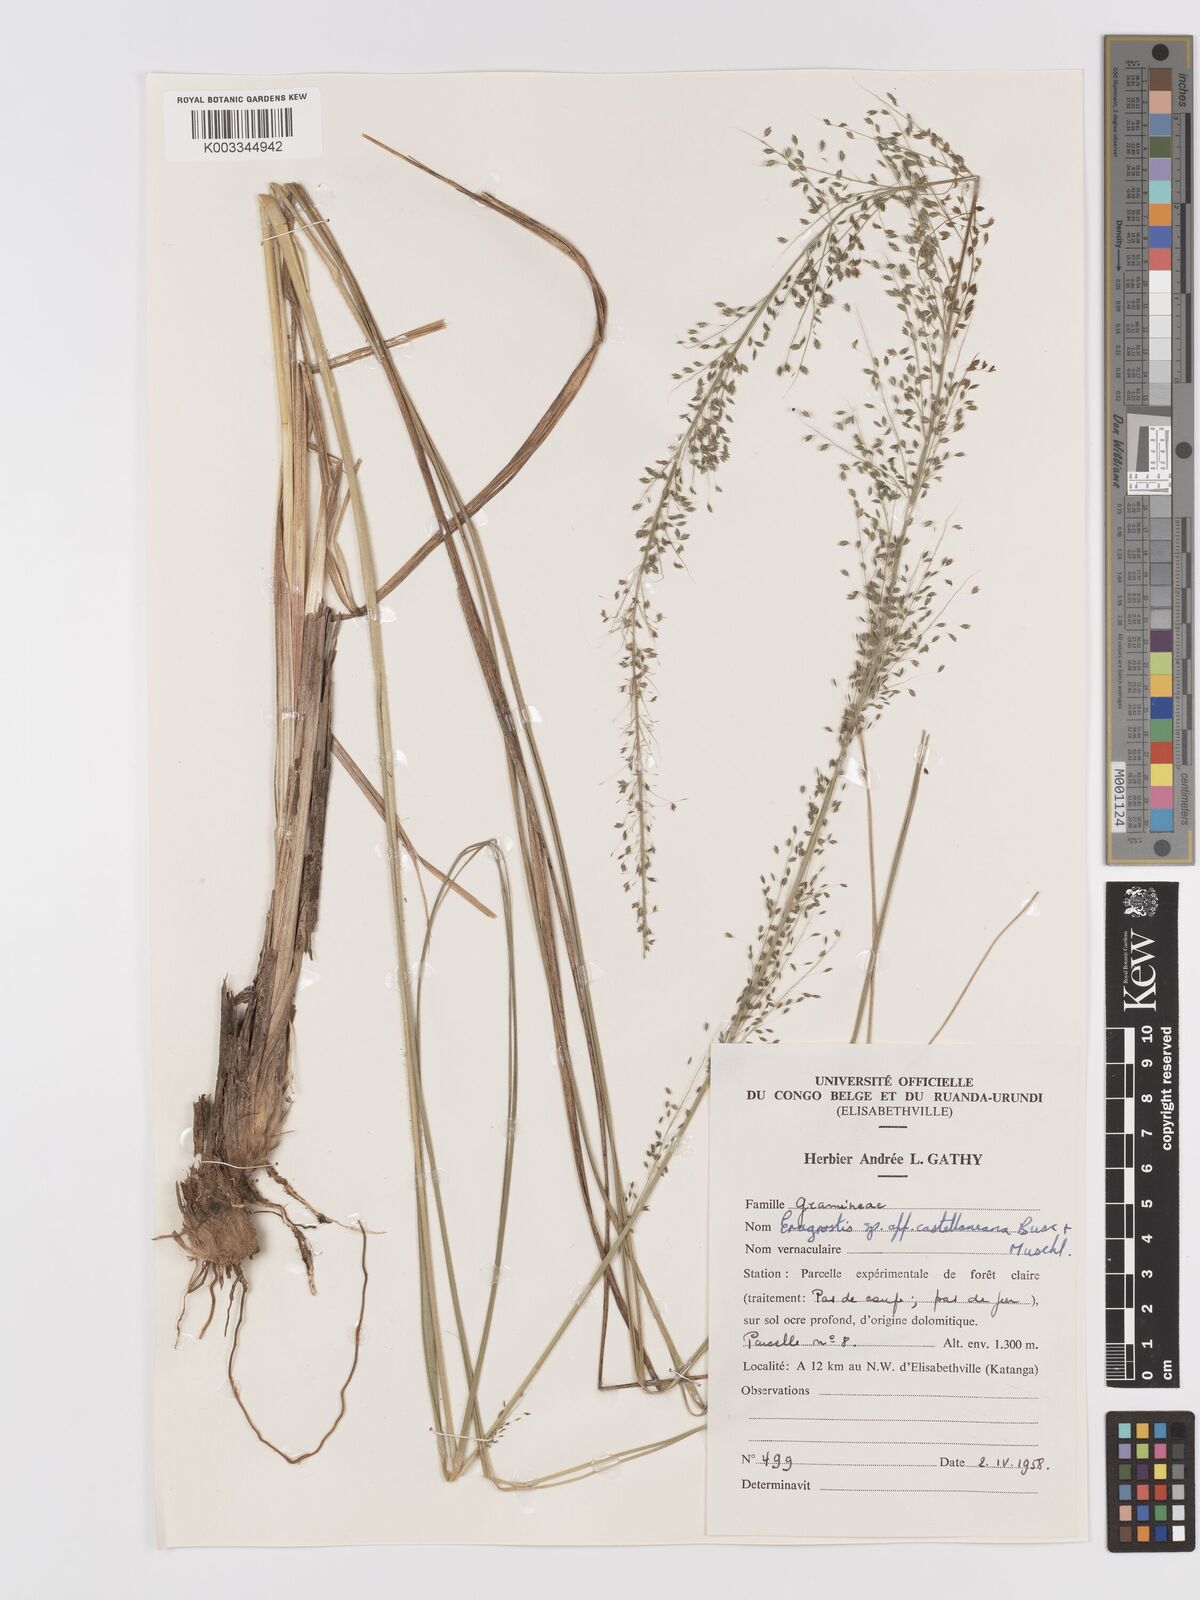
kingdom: Plantae
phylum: Tracheophyta
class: Liliopsida
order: Poales
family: Poaceae
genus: Eragrostis
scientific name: Eragrostis mollior
